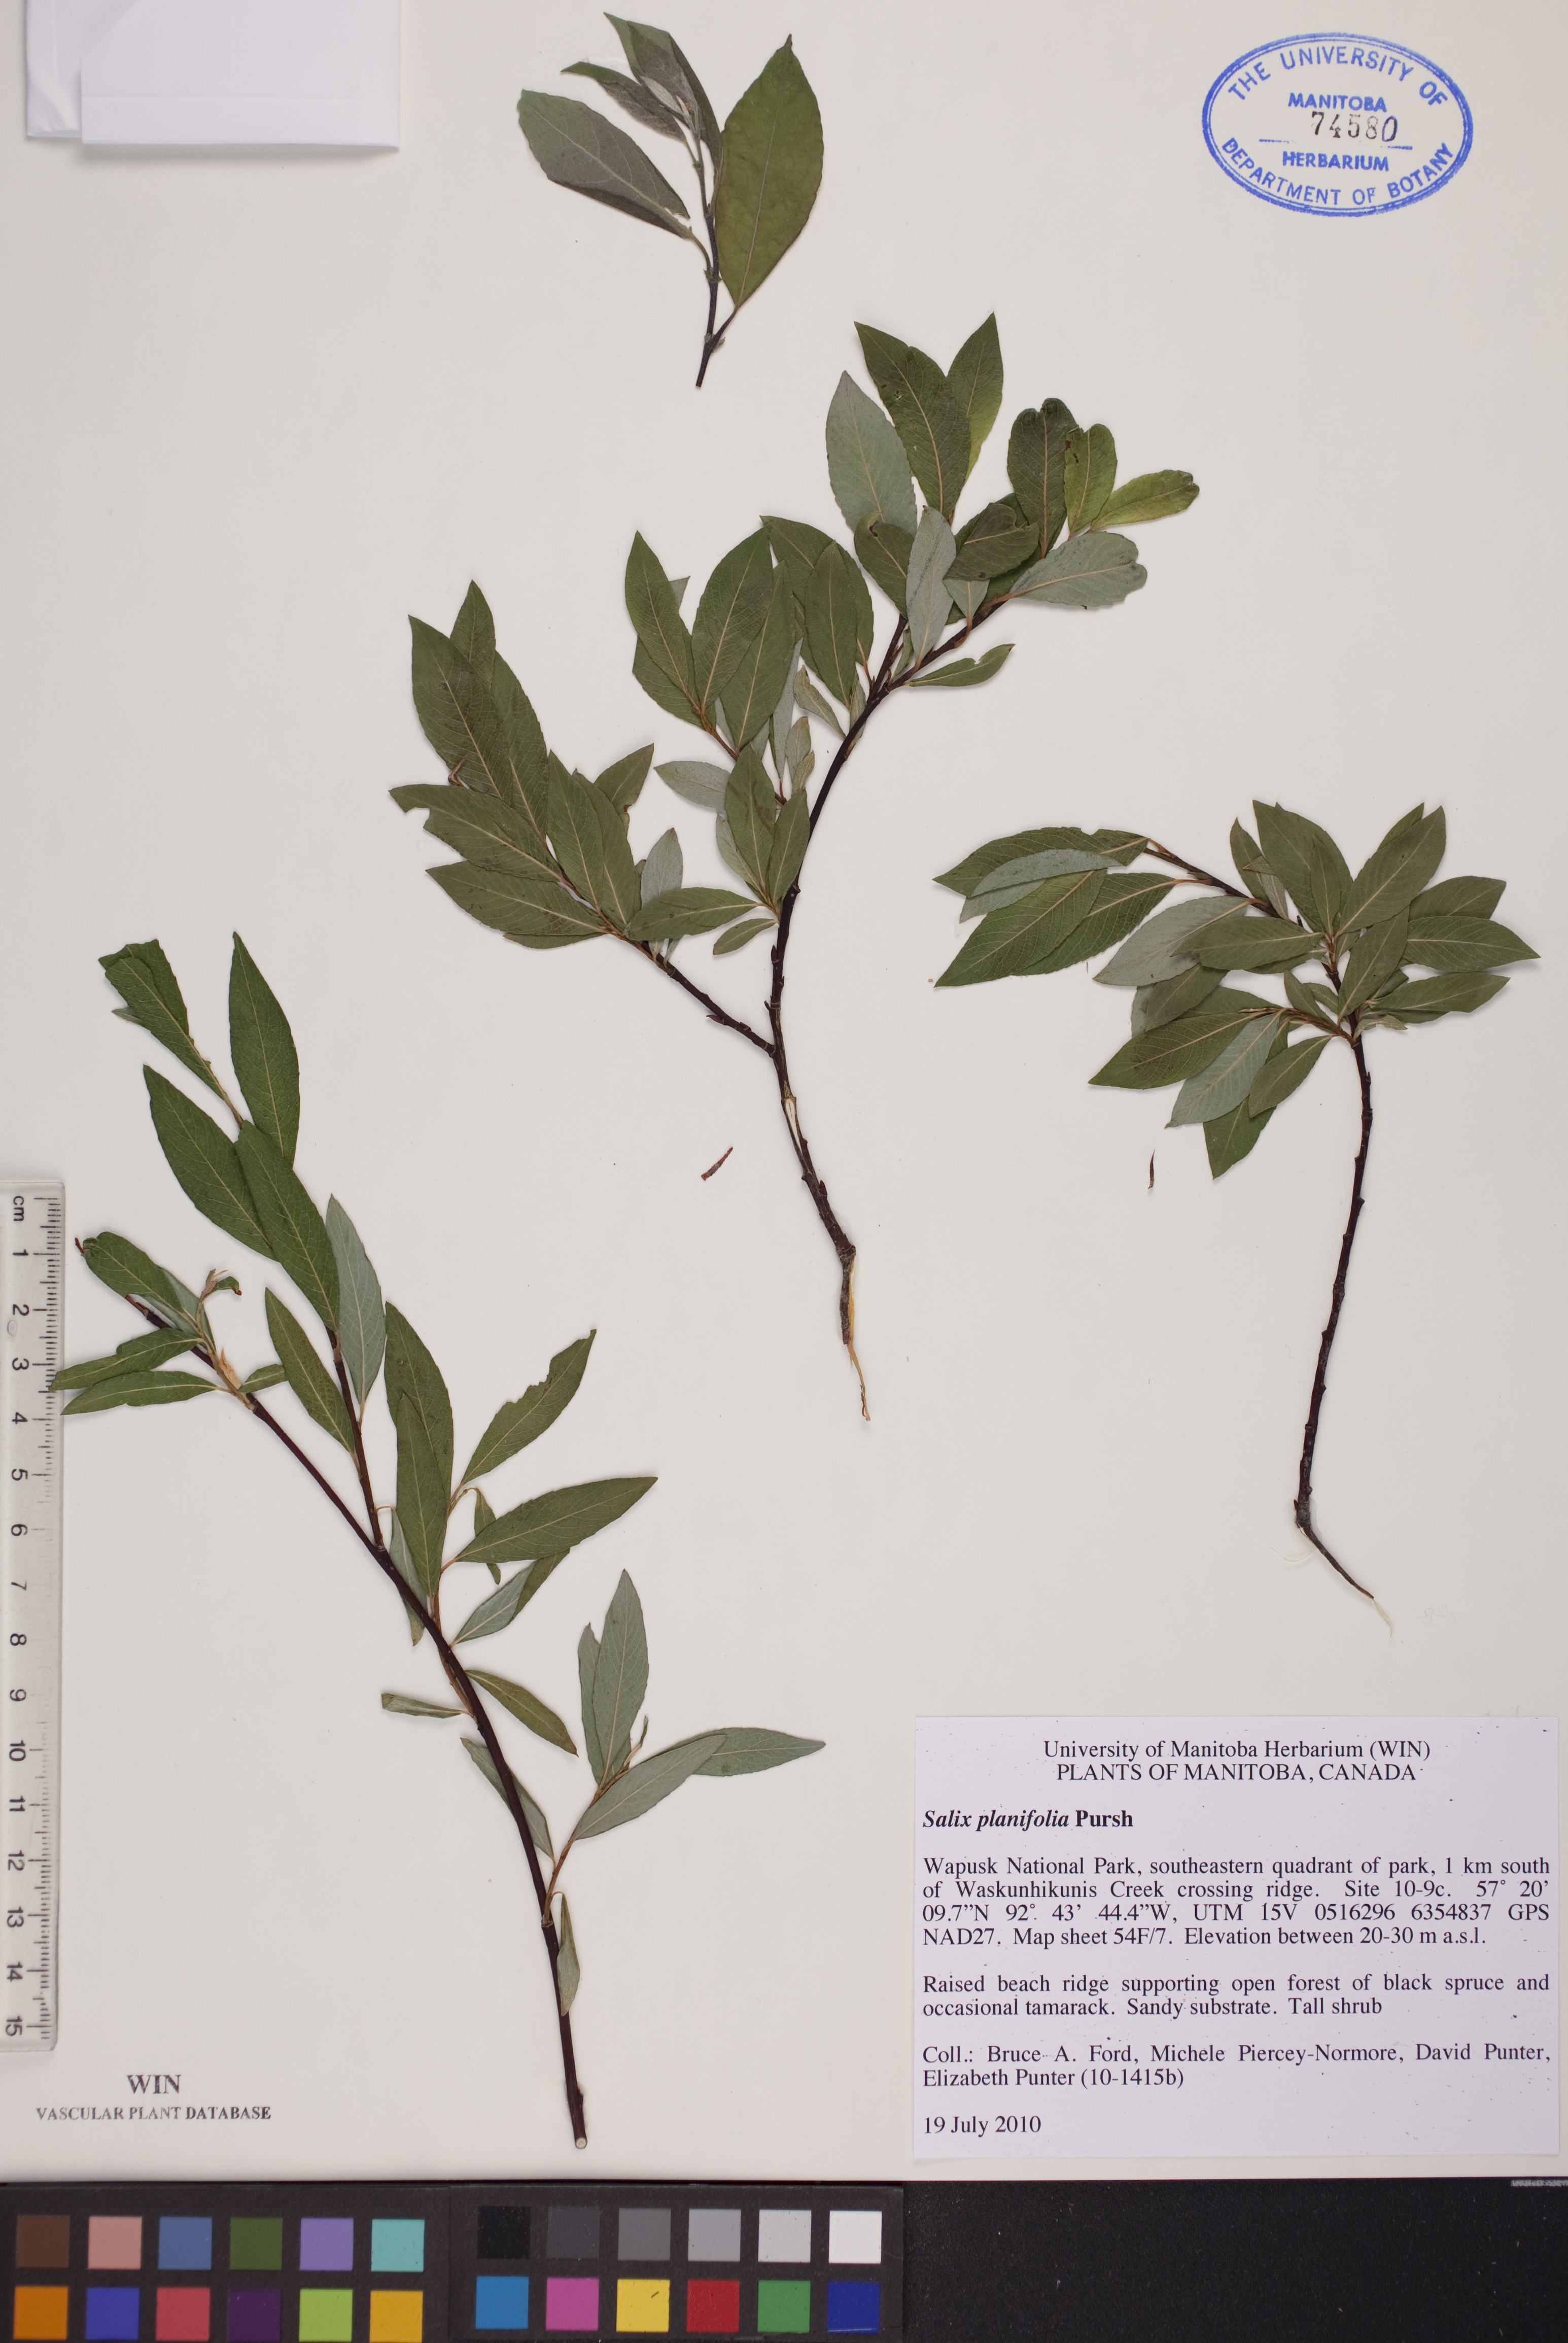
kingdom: Plantae
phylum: Tracheophyta
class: Magnoliopsida
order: Malpighiales
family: Salicaceae
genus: Salix
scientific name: Salix planifolia
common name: Mountain willow
